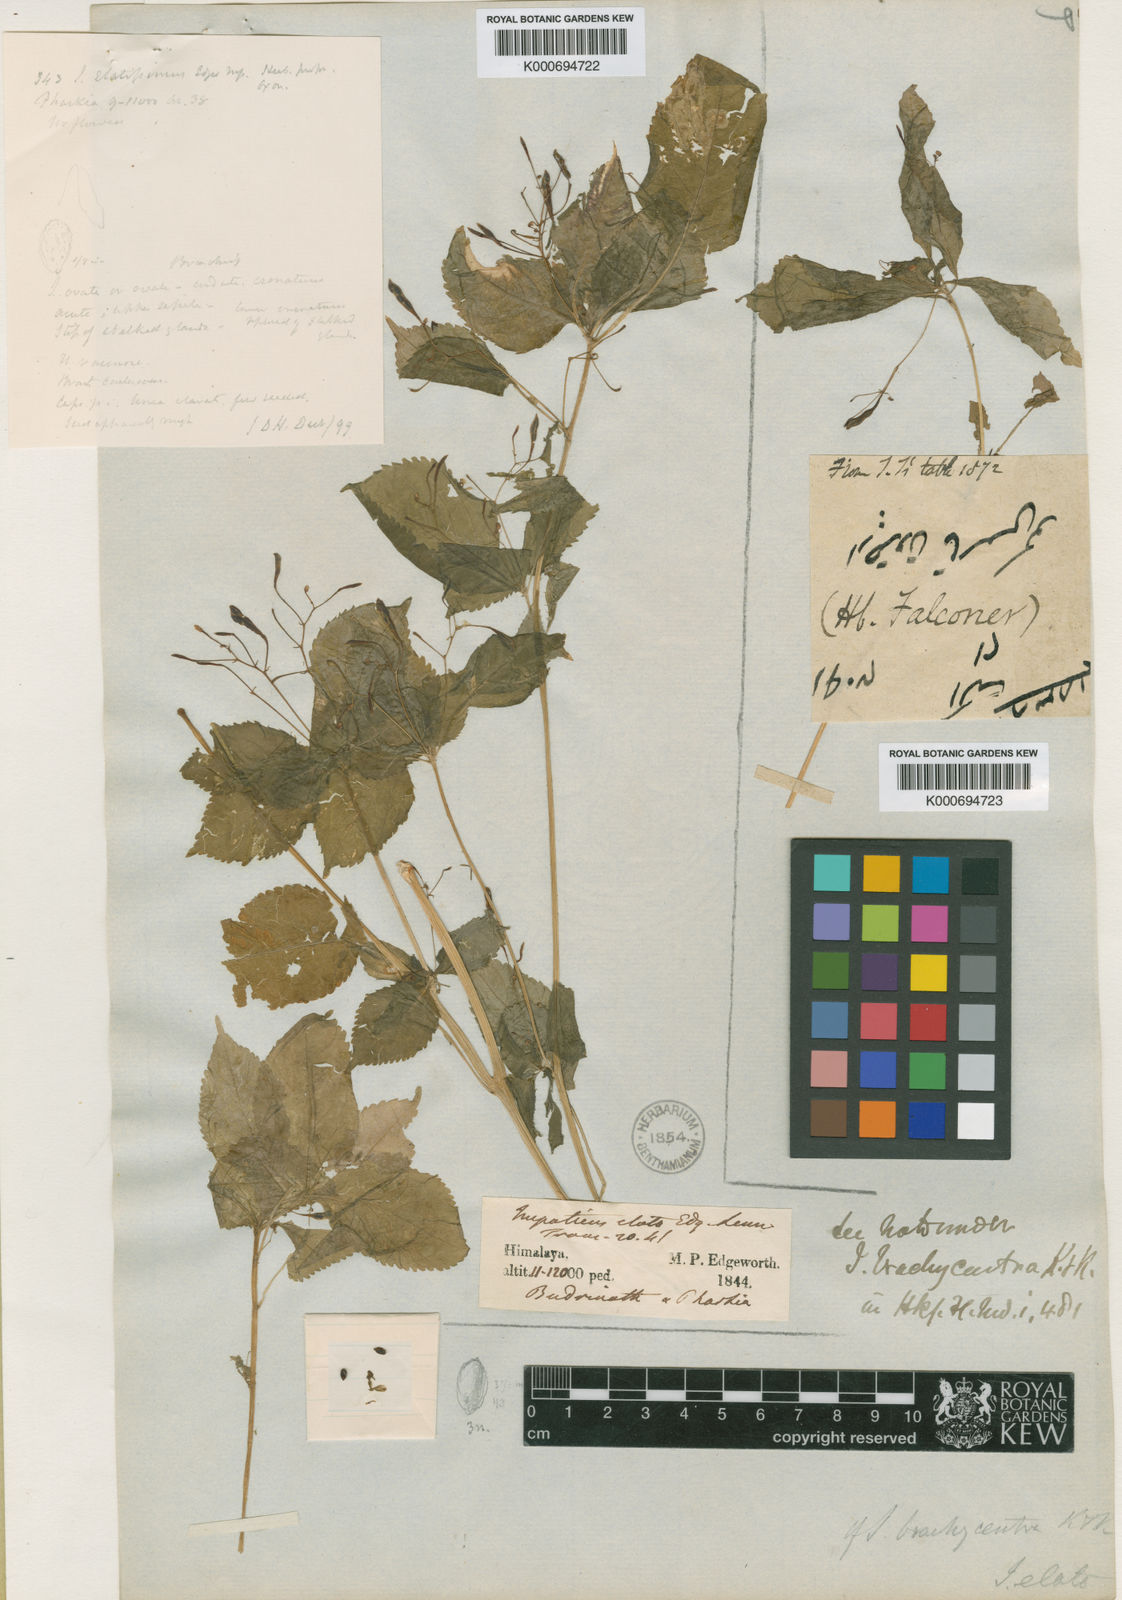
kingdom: Plantae
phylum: Tracheophyta
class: Magnoliopsida
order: Ericales
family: Balsaminaceae
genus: Impatiens
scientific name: Impatiens brachycentra
